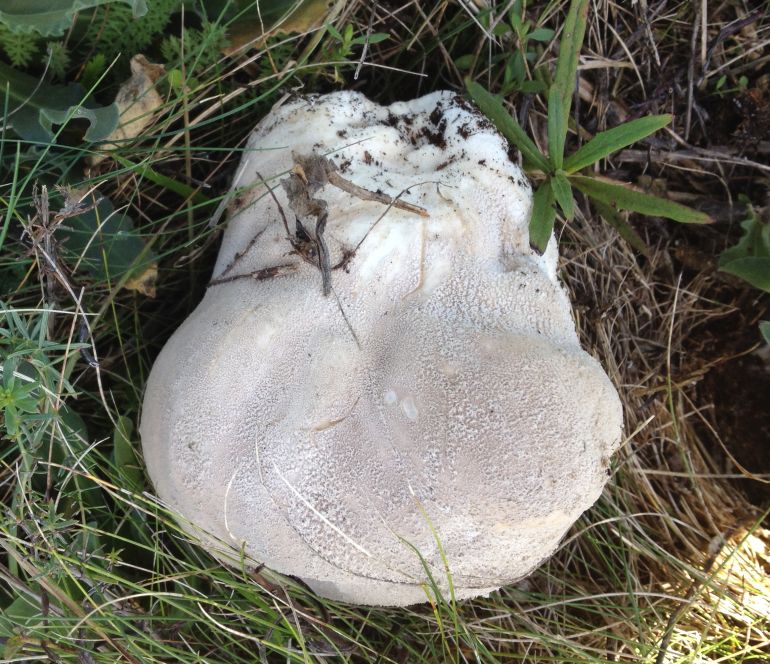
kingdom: Fungi
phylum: Basidiomycota
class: Agaricomycetes
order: Agaricales
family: Lycoperdaceae
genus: Bovistella
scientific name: Bovistella utriformis
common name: skællet støvbold
